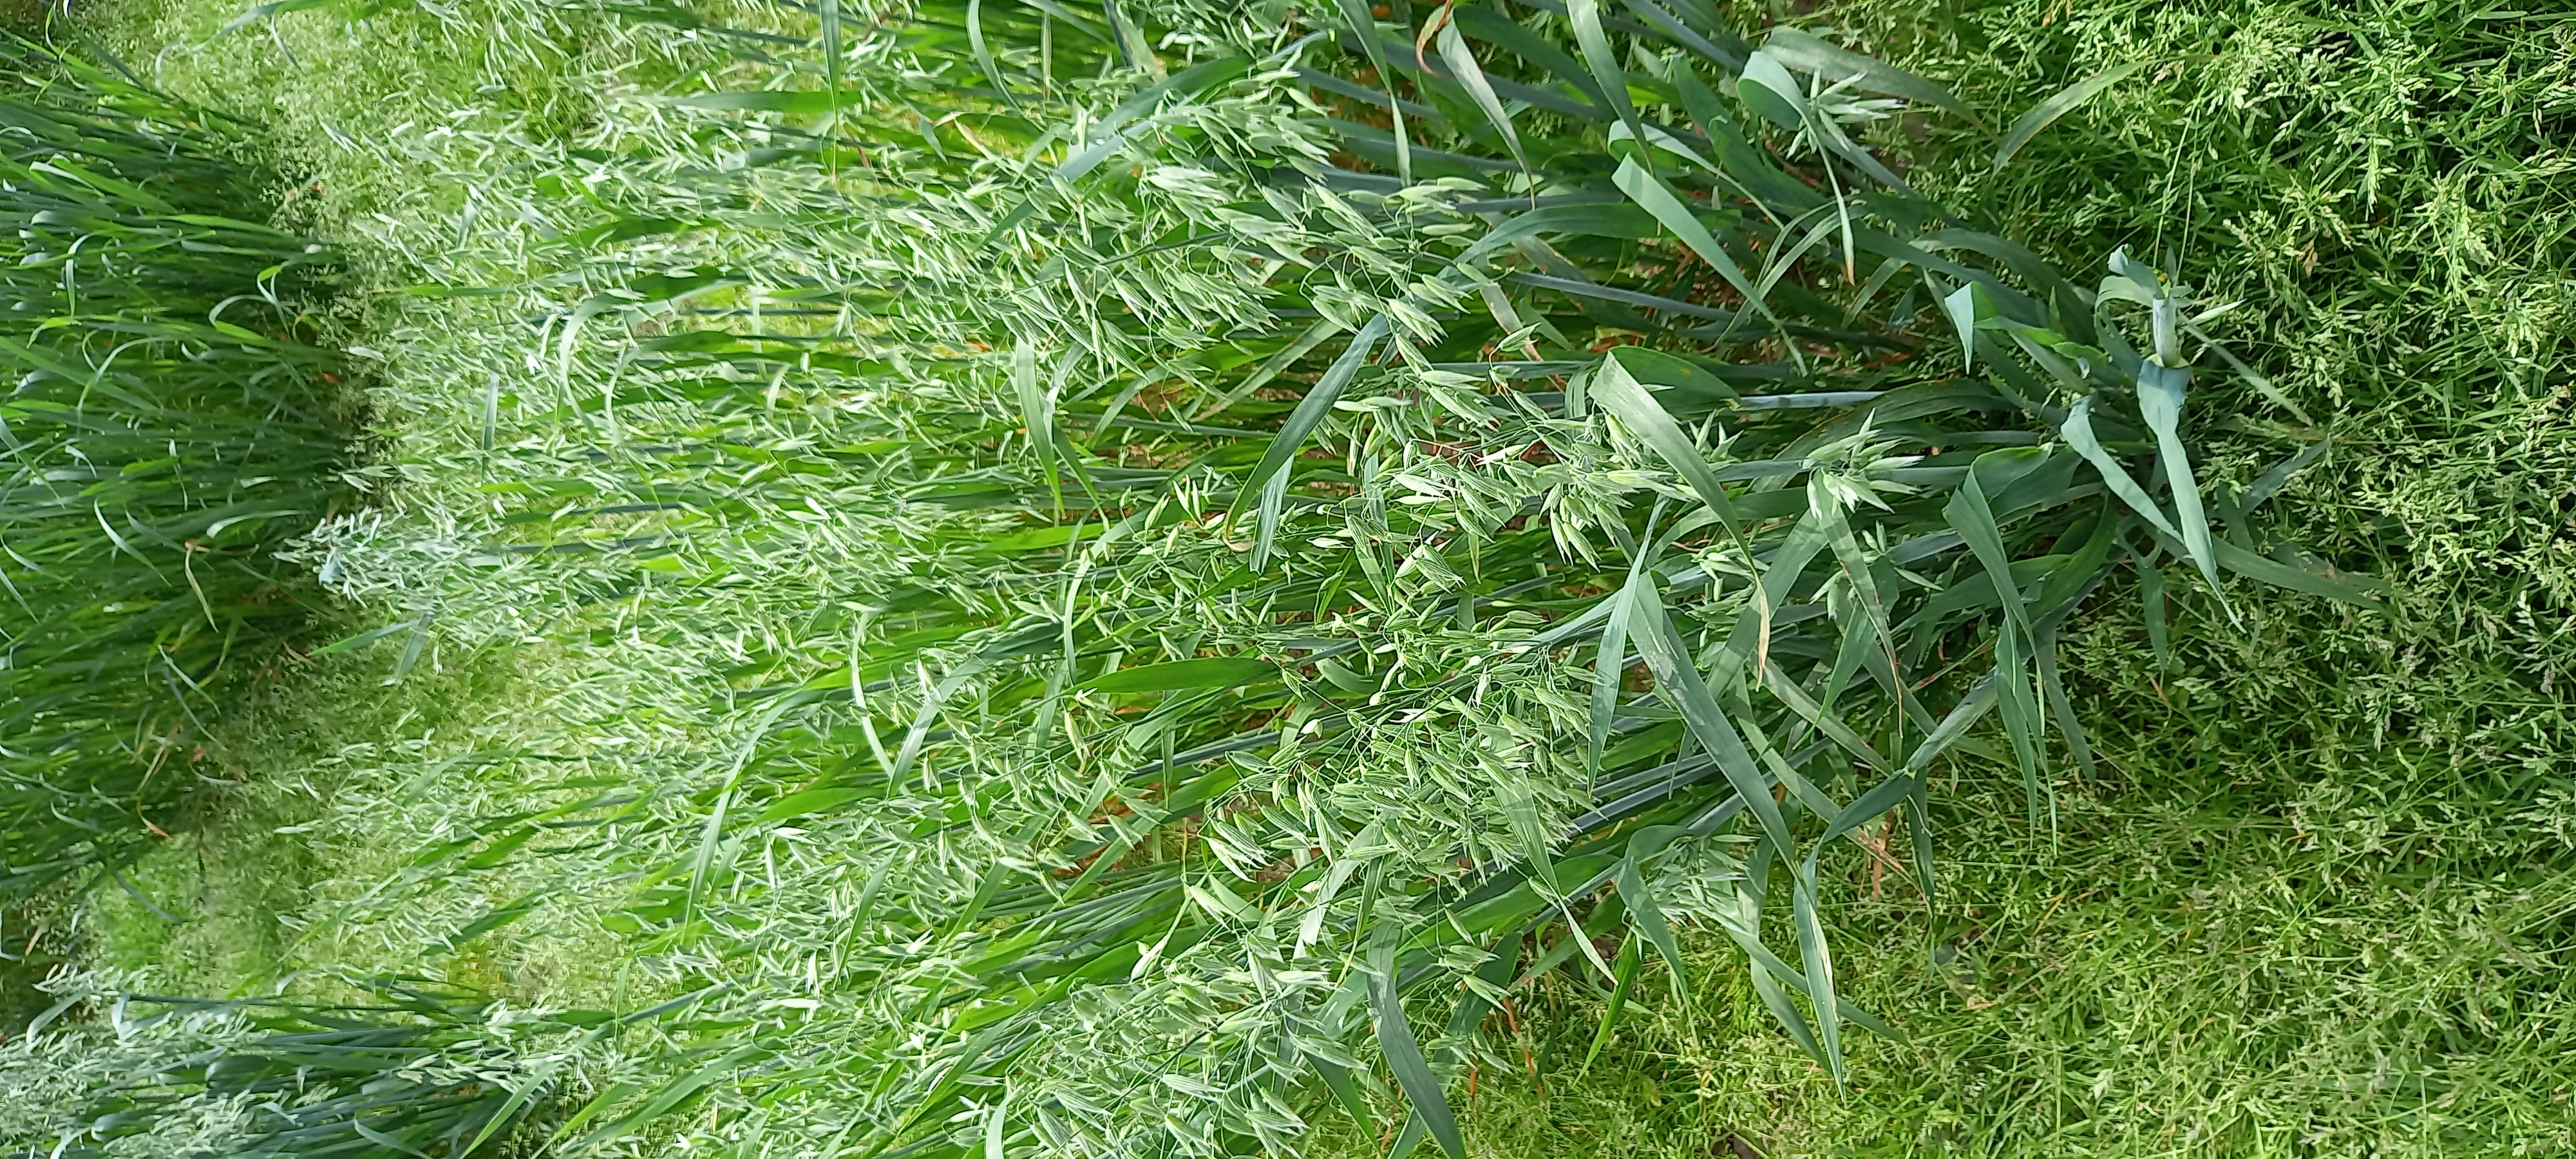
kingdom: Plantae
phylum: Tracheophyta
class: Liliopsida
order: Poales
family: Poaceae
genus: Avena
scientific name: Avena sativa
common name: Oat
